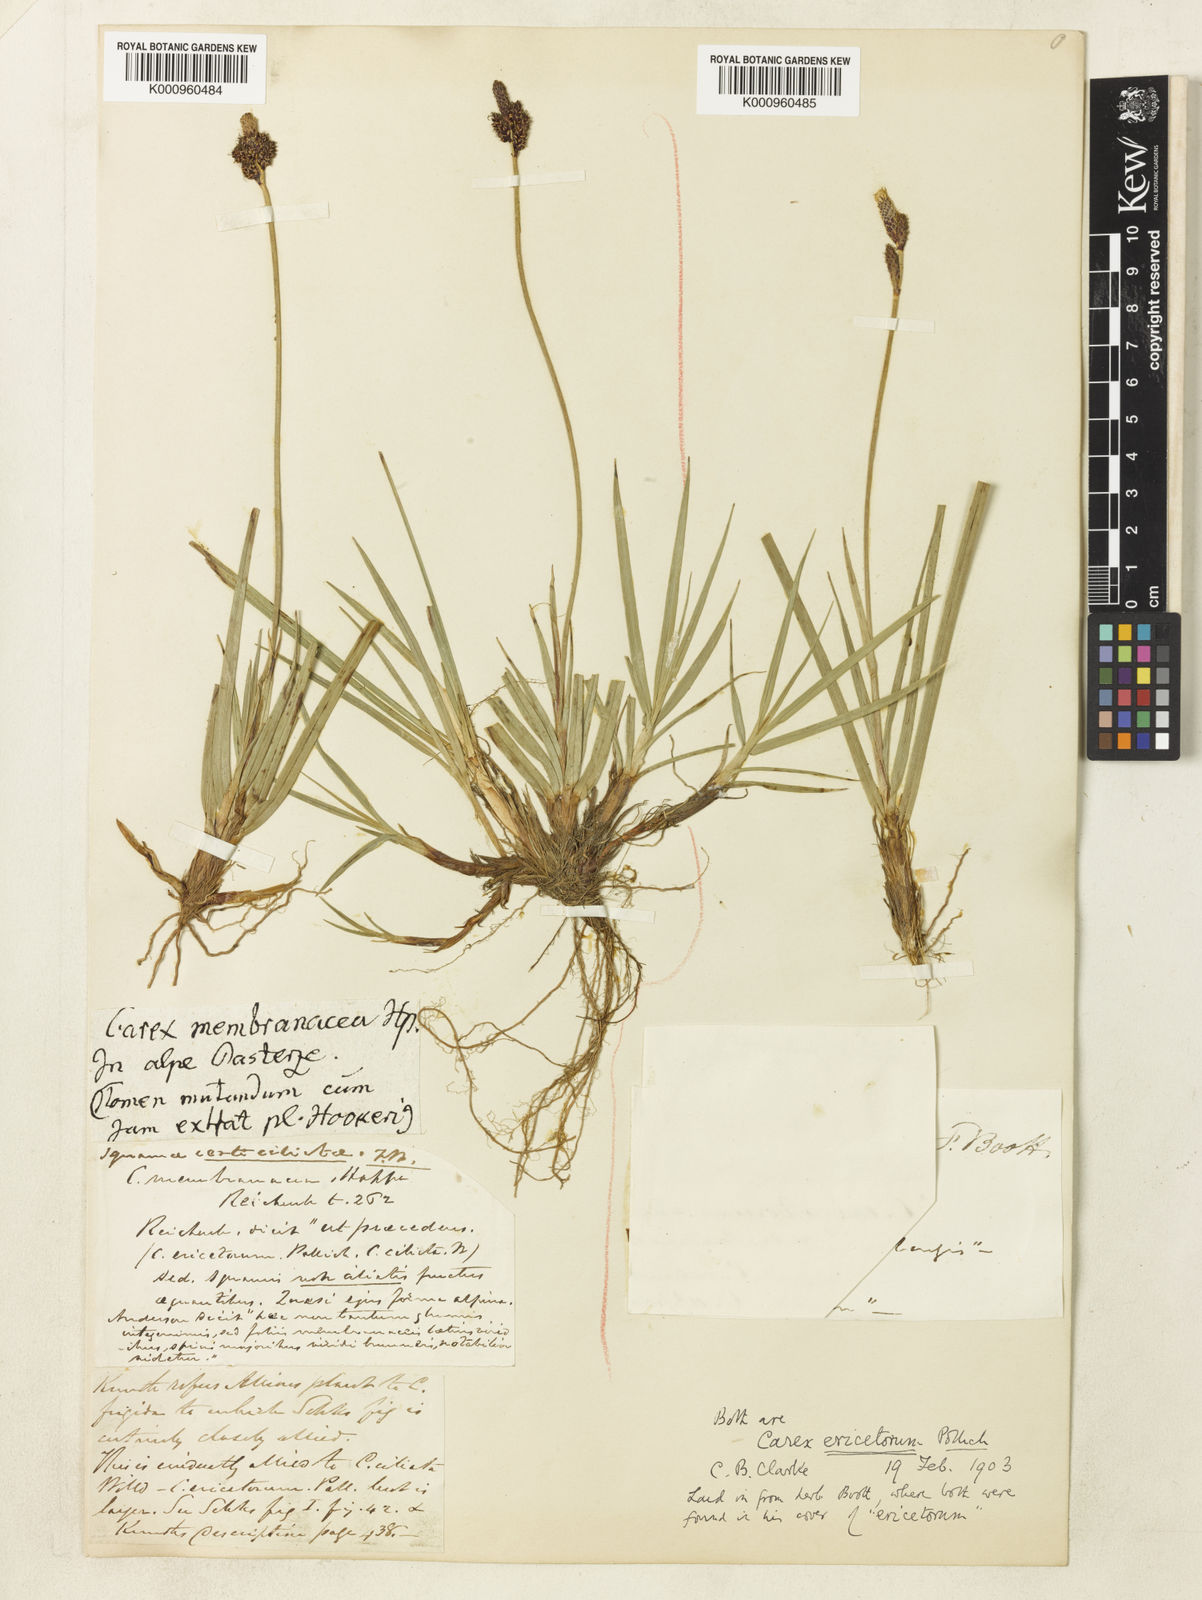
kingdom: Plantae
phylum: Tracheophyta
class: Liliopsida
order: Poales
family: Cyperaceae
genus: Carex
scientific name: Carex ericetorum
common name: Rare spring-sedge
